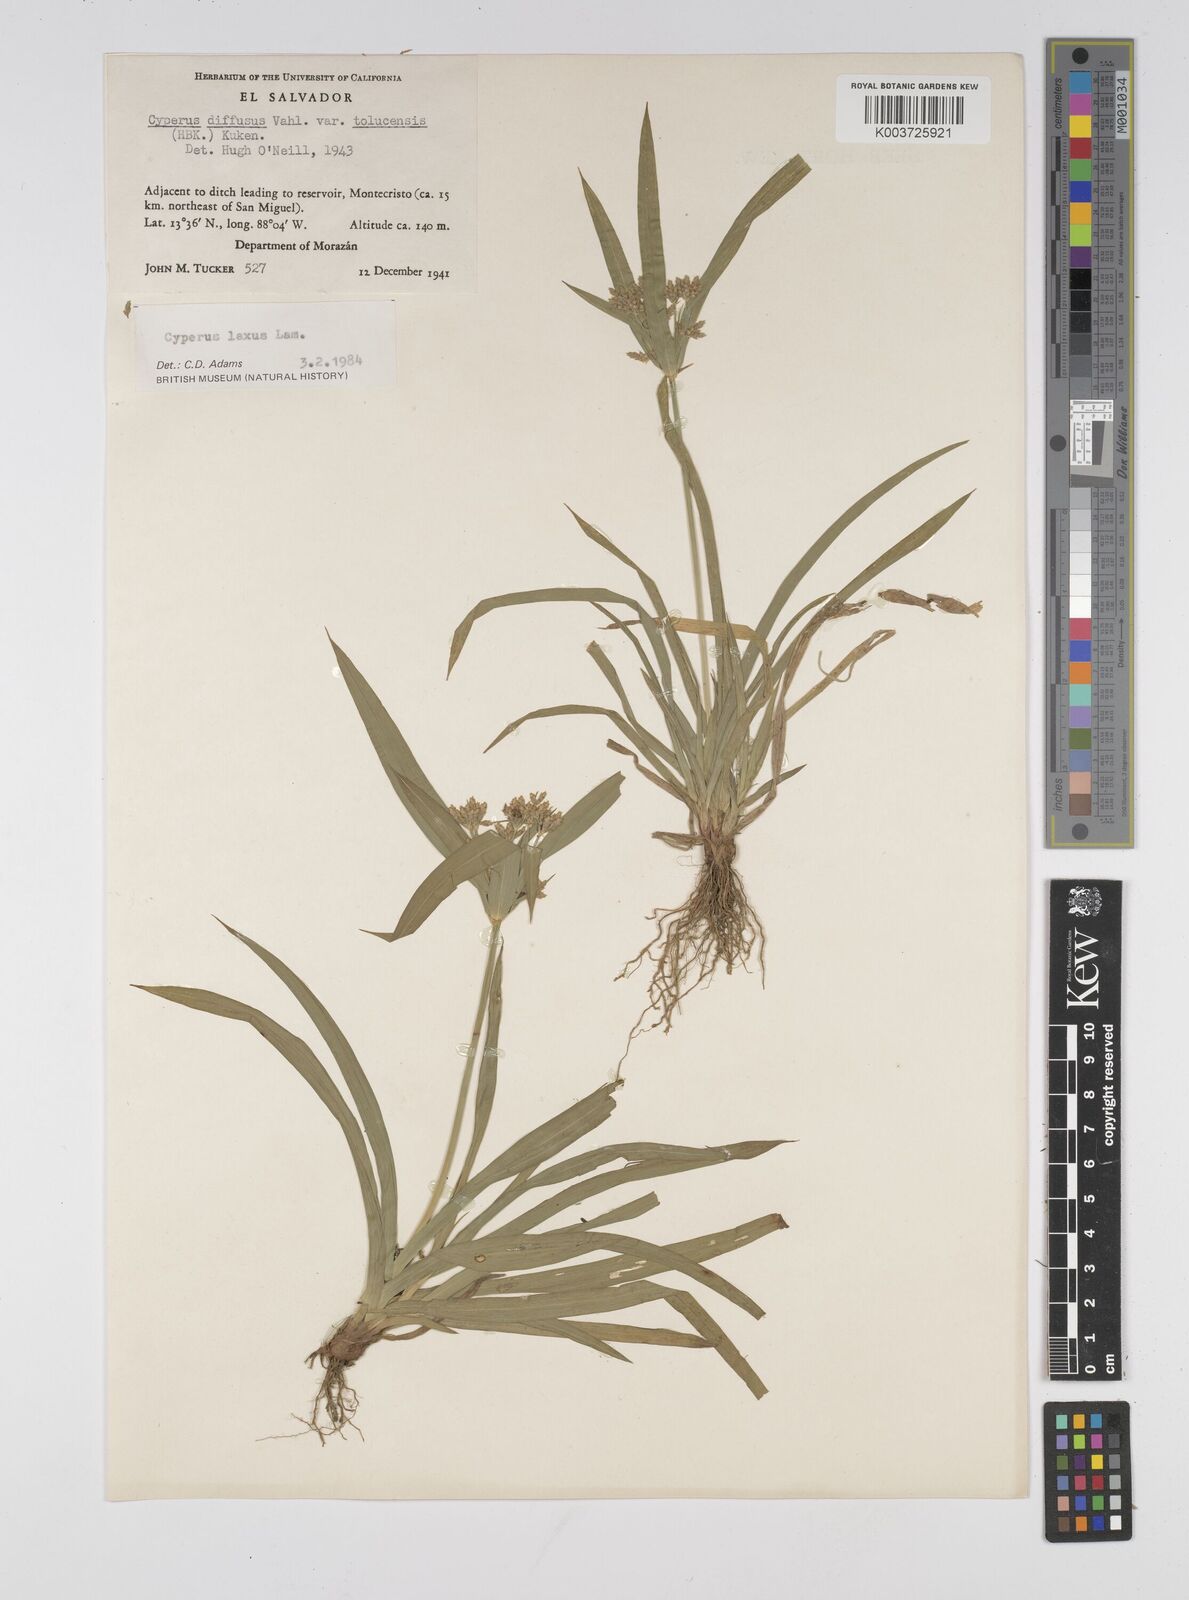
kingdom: Plantae
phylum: Tracheophyta
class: Liliopsida
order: Poales
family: Cyperaceae
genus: Cyperus
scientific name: Cyperus chalaranthus
